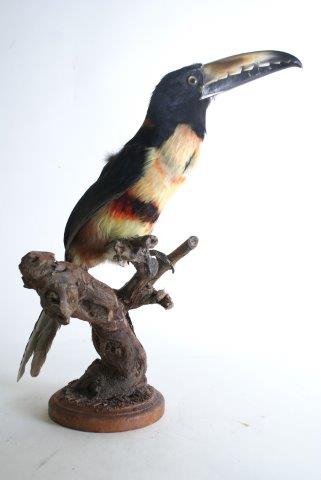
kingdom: Animalia
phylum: Chordata
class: Aves
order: Piciformes
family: Ramphastidae
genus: Pteroglossus
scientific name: Pteroglossus torquatus
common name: Collared aracari
